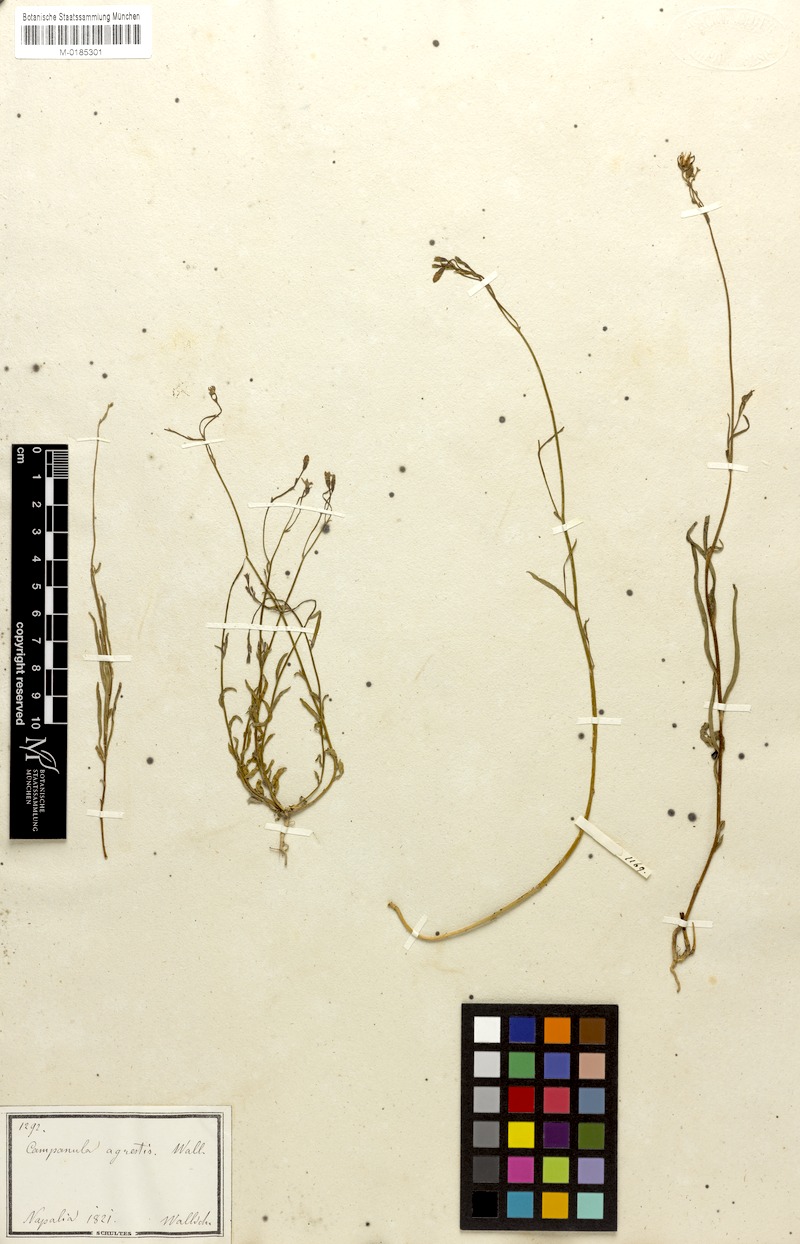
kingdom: Plantae
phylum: Tracheophyta
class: Magnoliopsida
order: Asterales
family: Campanulaceae
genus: Wahlenbergia
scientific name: Wahlenbergia marginata
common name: Southern rockbell
